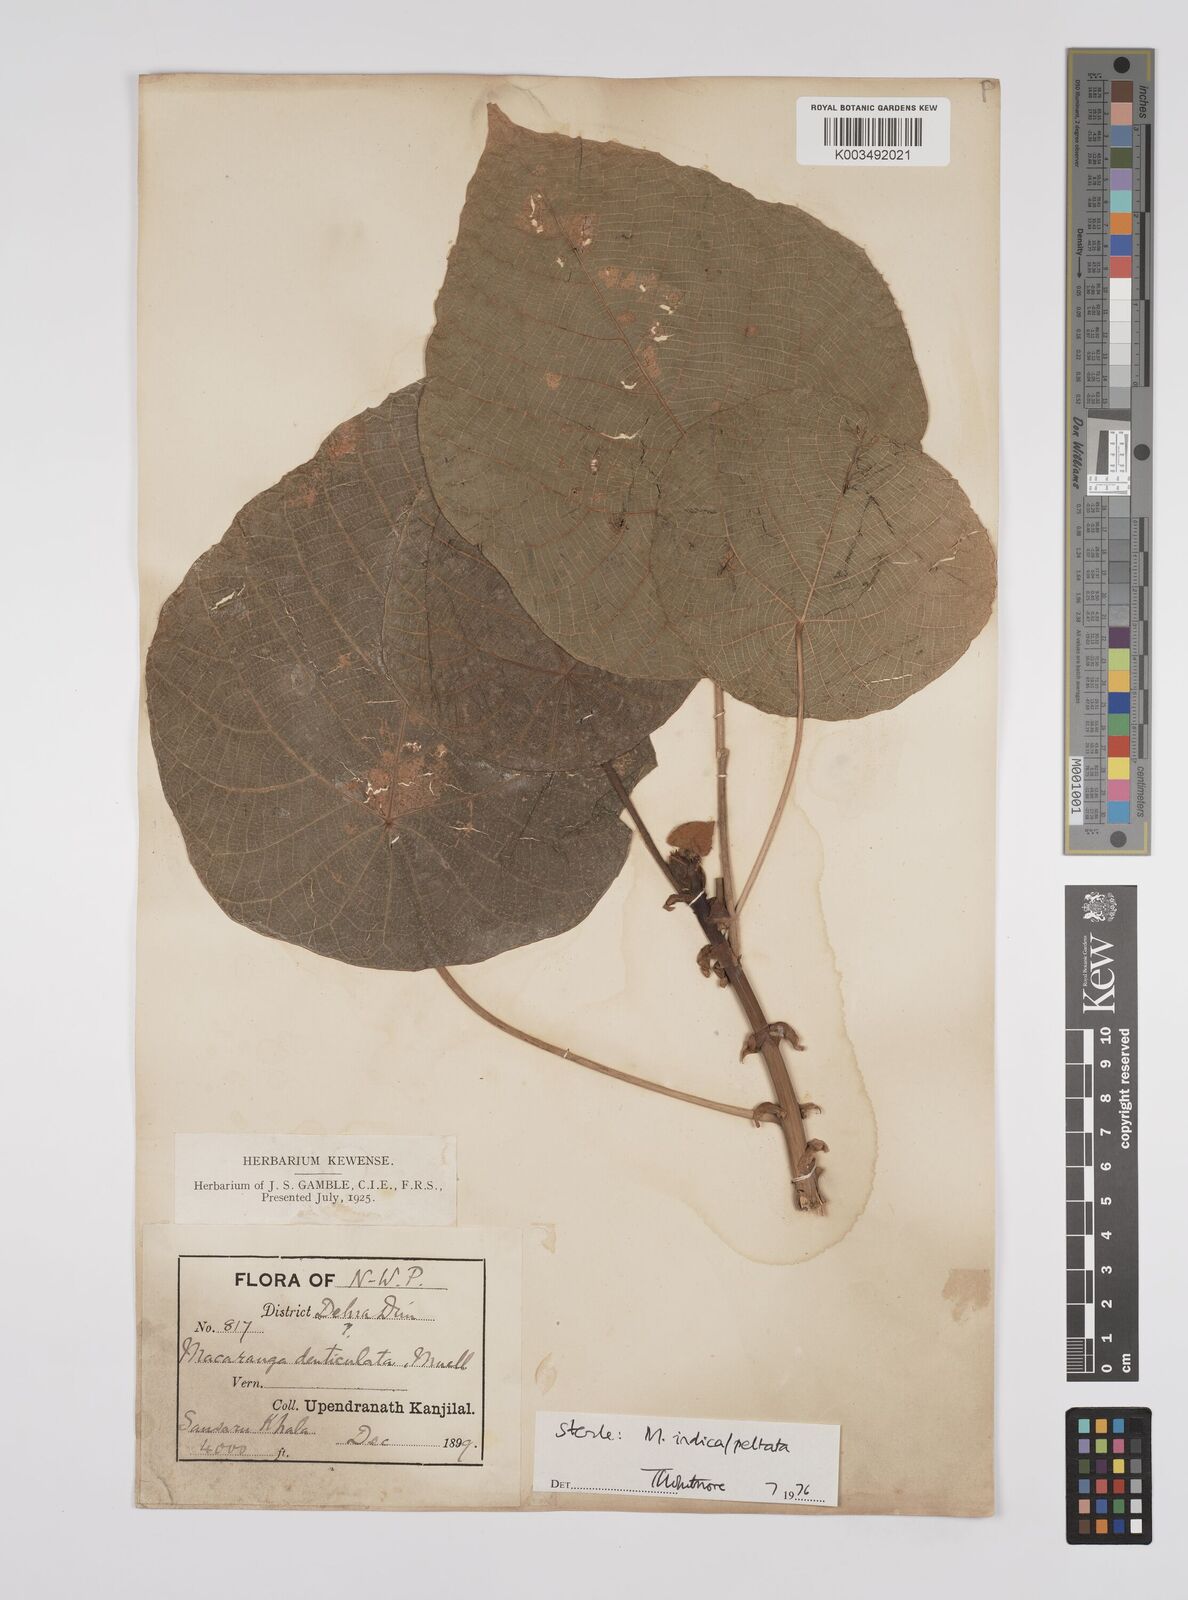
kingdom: Plantae
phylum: Tracheophyta
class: Magnoliopsida
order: Malpighiales
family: Euphorbiaceae
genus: Macaranga
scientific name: Macaranga indica
